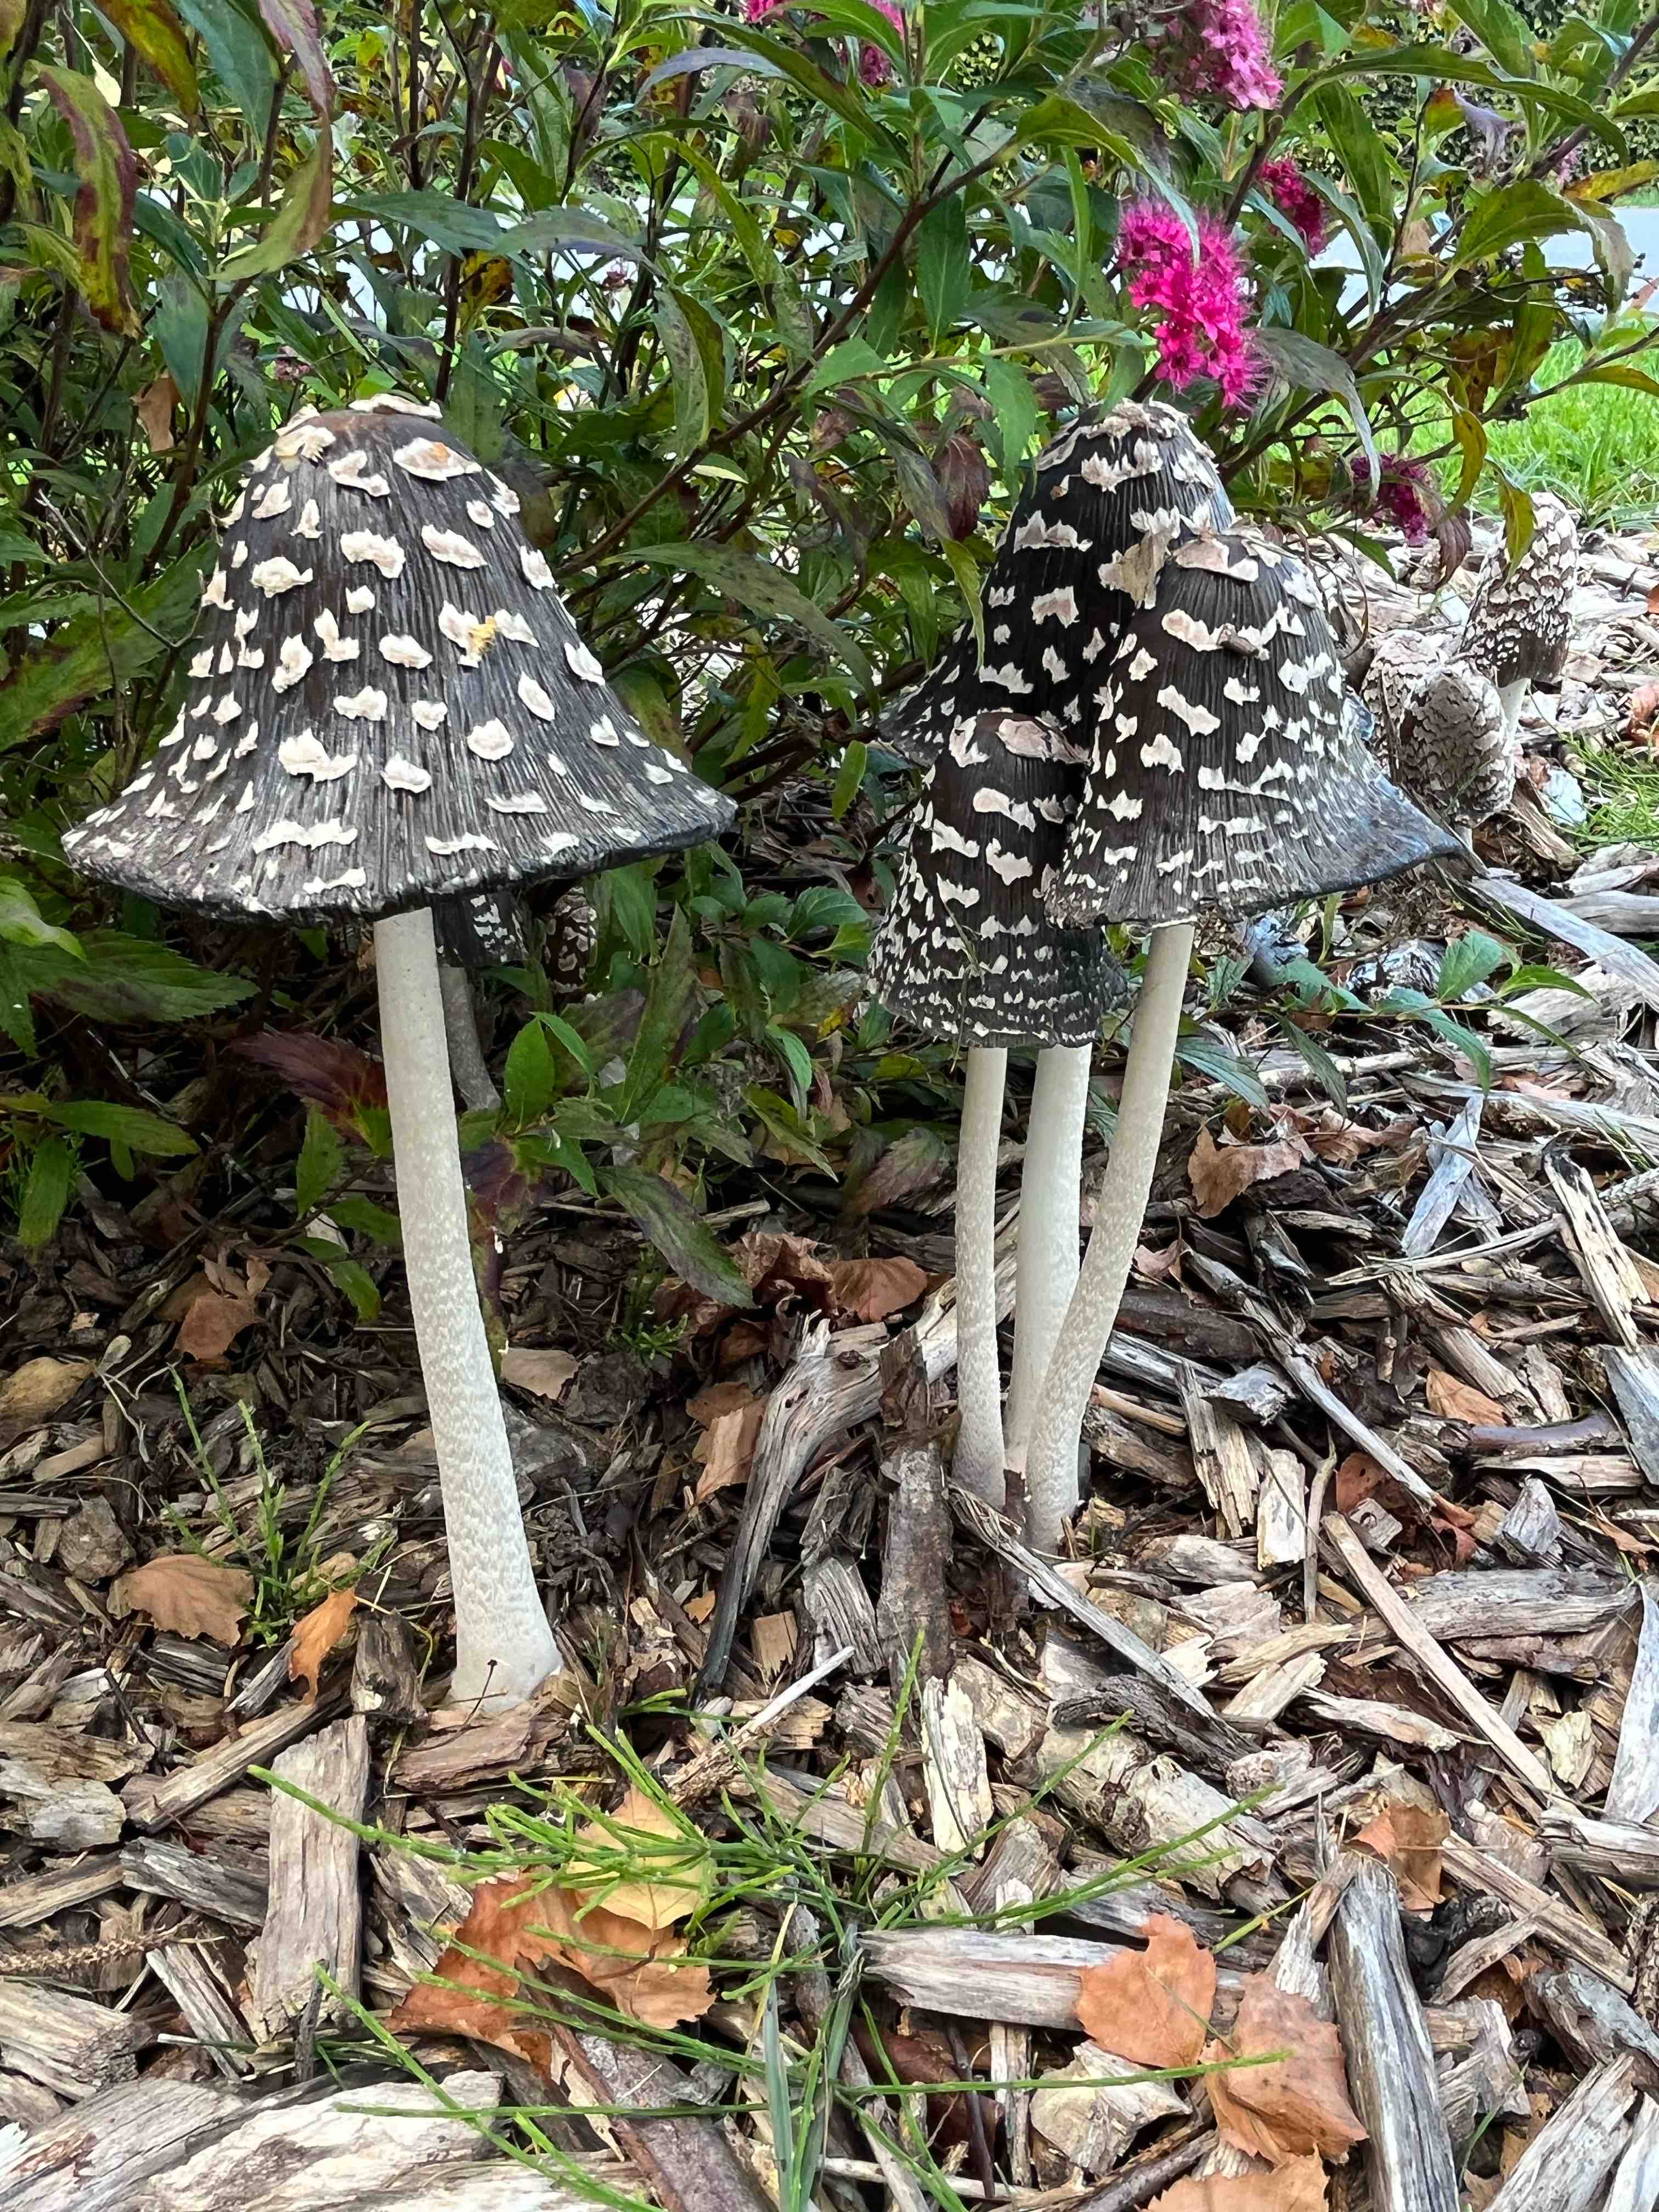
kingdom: Fungi
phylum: Basidiomycota
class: Agaricomycetes
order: Agaricales
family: Psathyrellaceae
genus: Coprinopsis
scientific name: Coprinopsis picacea
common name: skade-blækhat
